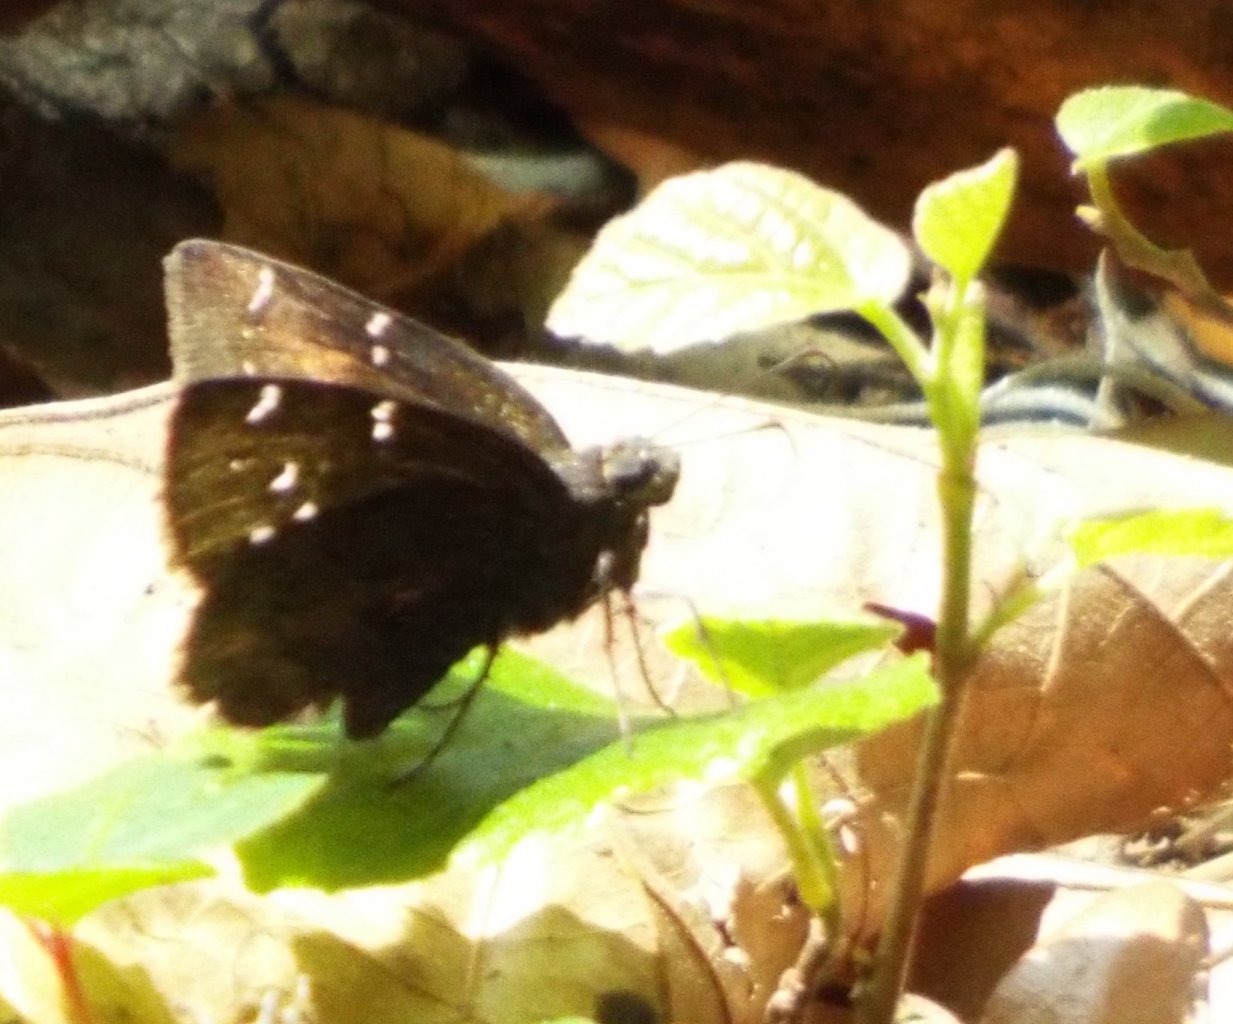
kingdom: Animalia
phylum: Arthropoda
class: Insecta
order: Lepidoptera
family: Hesperiidae
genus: Autochton
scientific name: Autochton
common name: Northern Cloudywing
